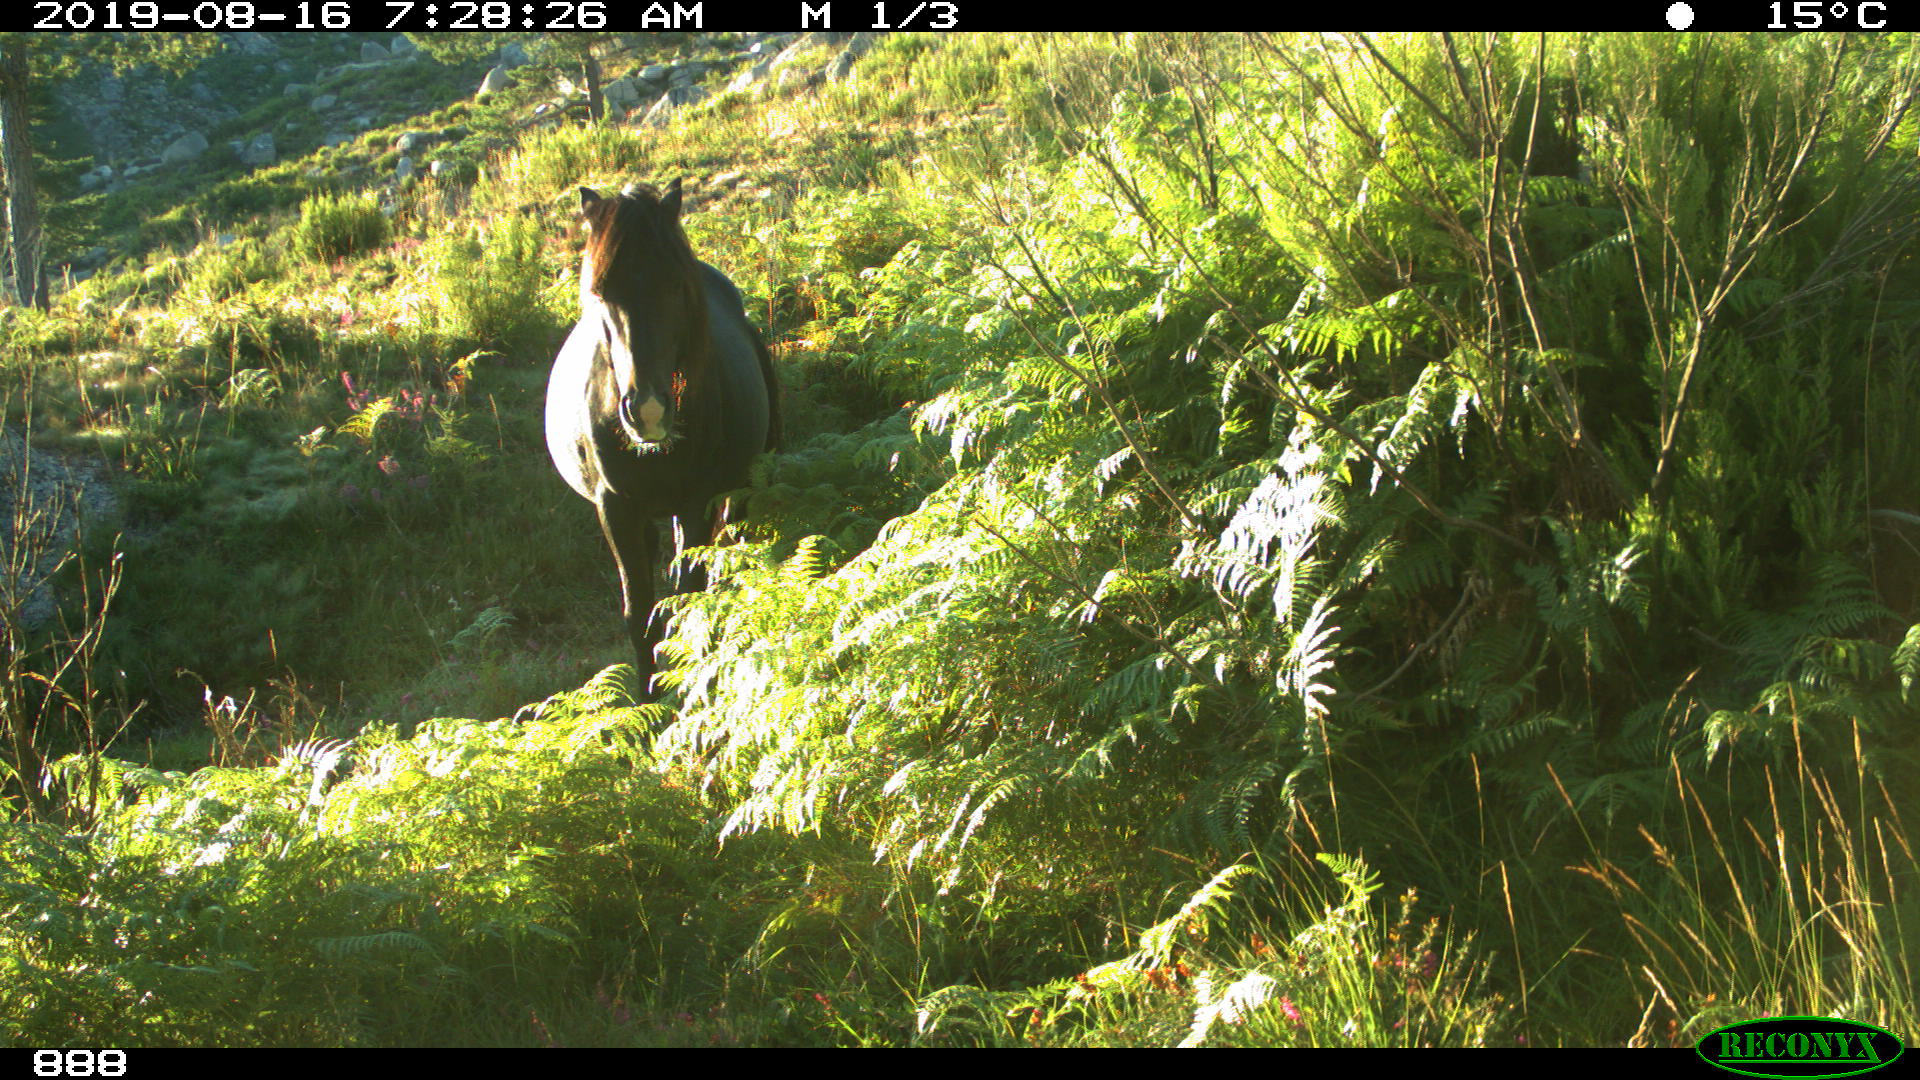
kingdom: Animalia
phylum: Chordata
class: Mammalia
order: Perissodactyla
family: Equidae
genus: Equus
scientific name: Equus caballus
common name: Horse
